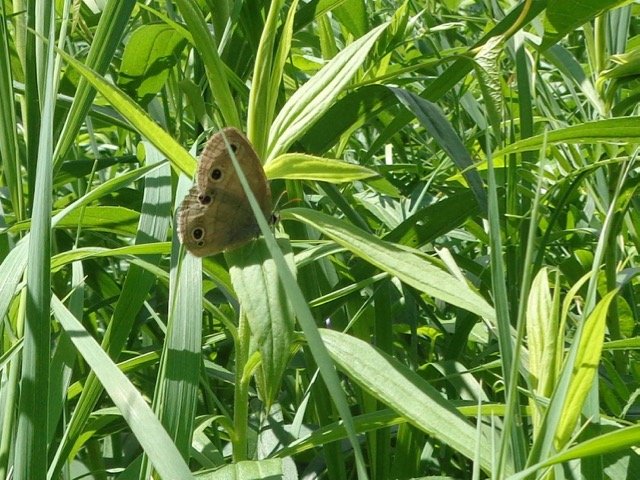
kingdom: Animalia
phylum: Arthropoda
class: Insecta
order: Lepidoptera
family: Nymphalidae
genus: Euptychia
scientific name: Euptychia cymela
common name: Little Wood Satyr
